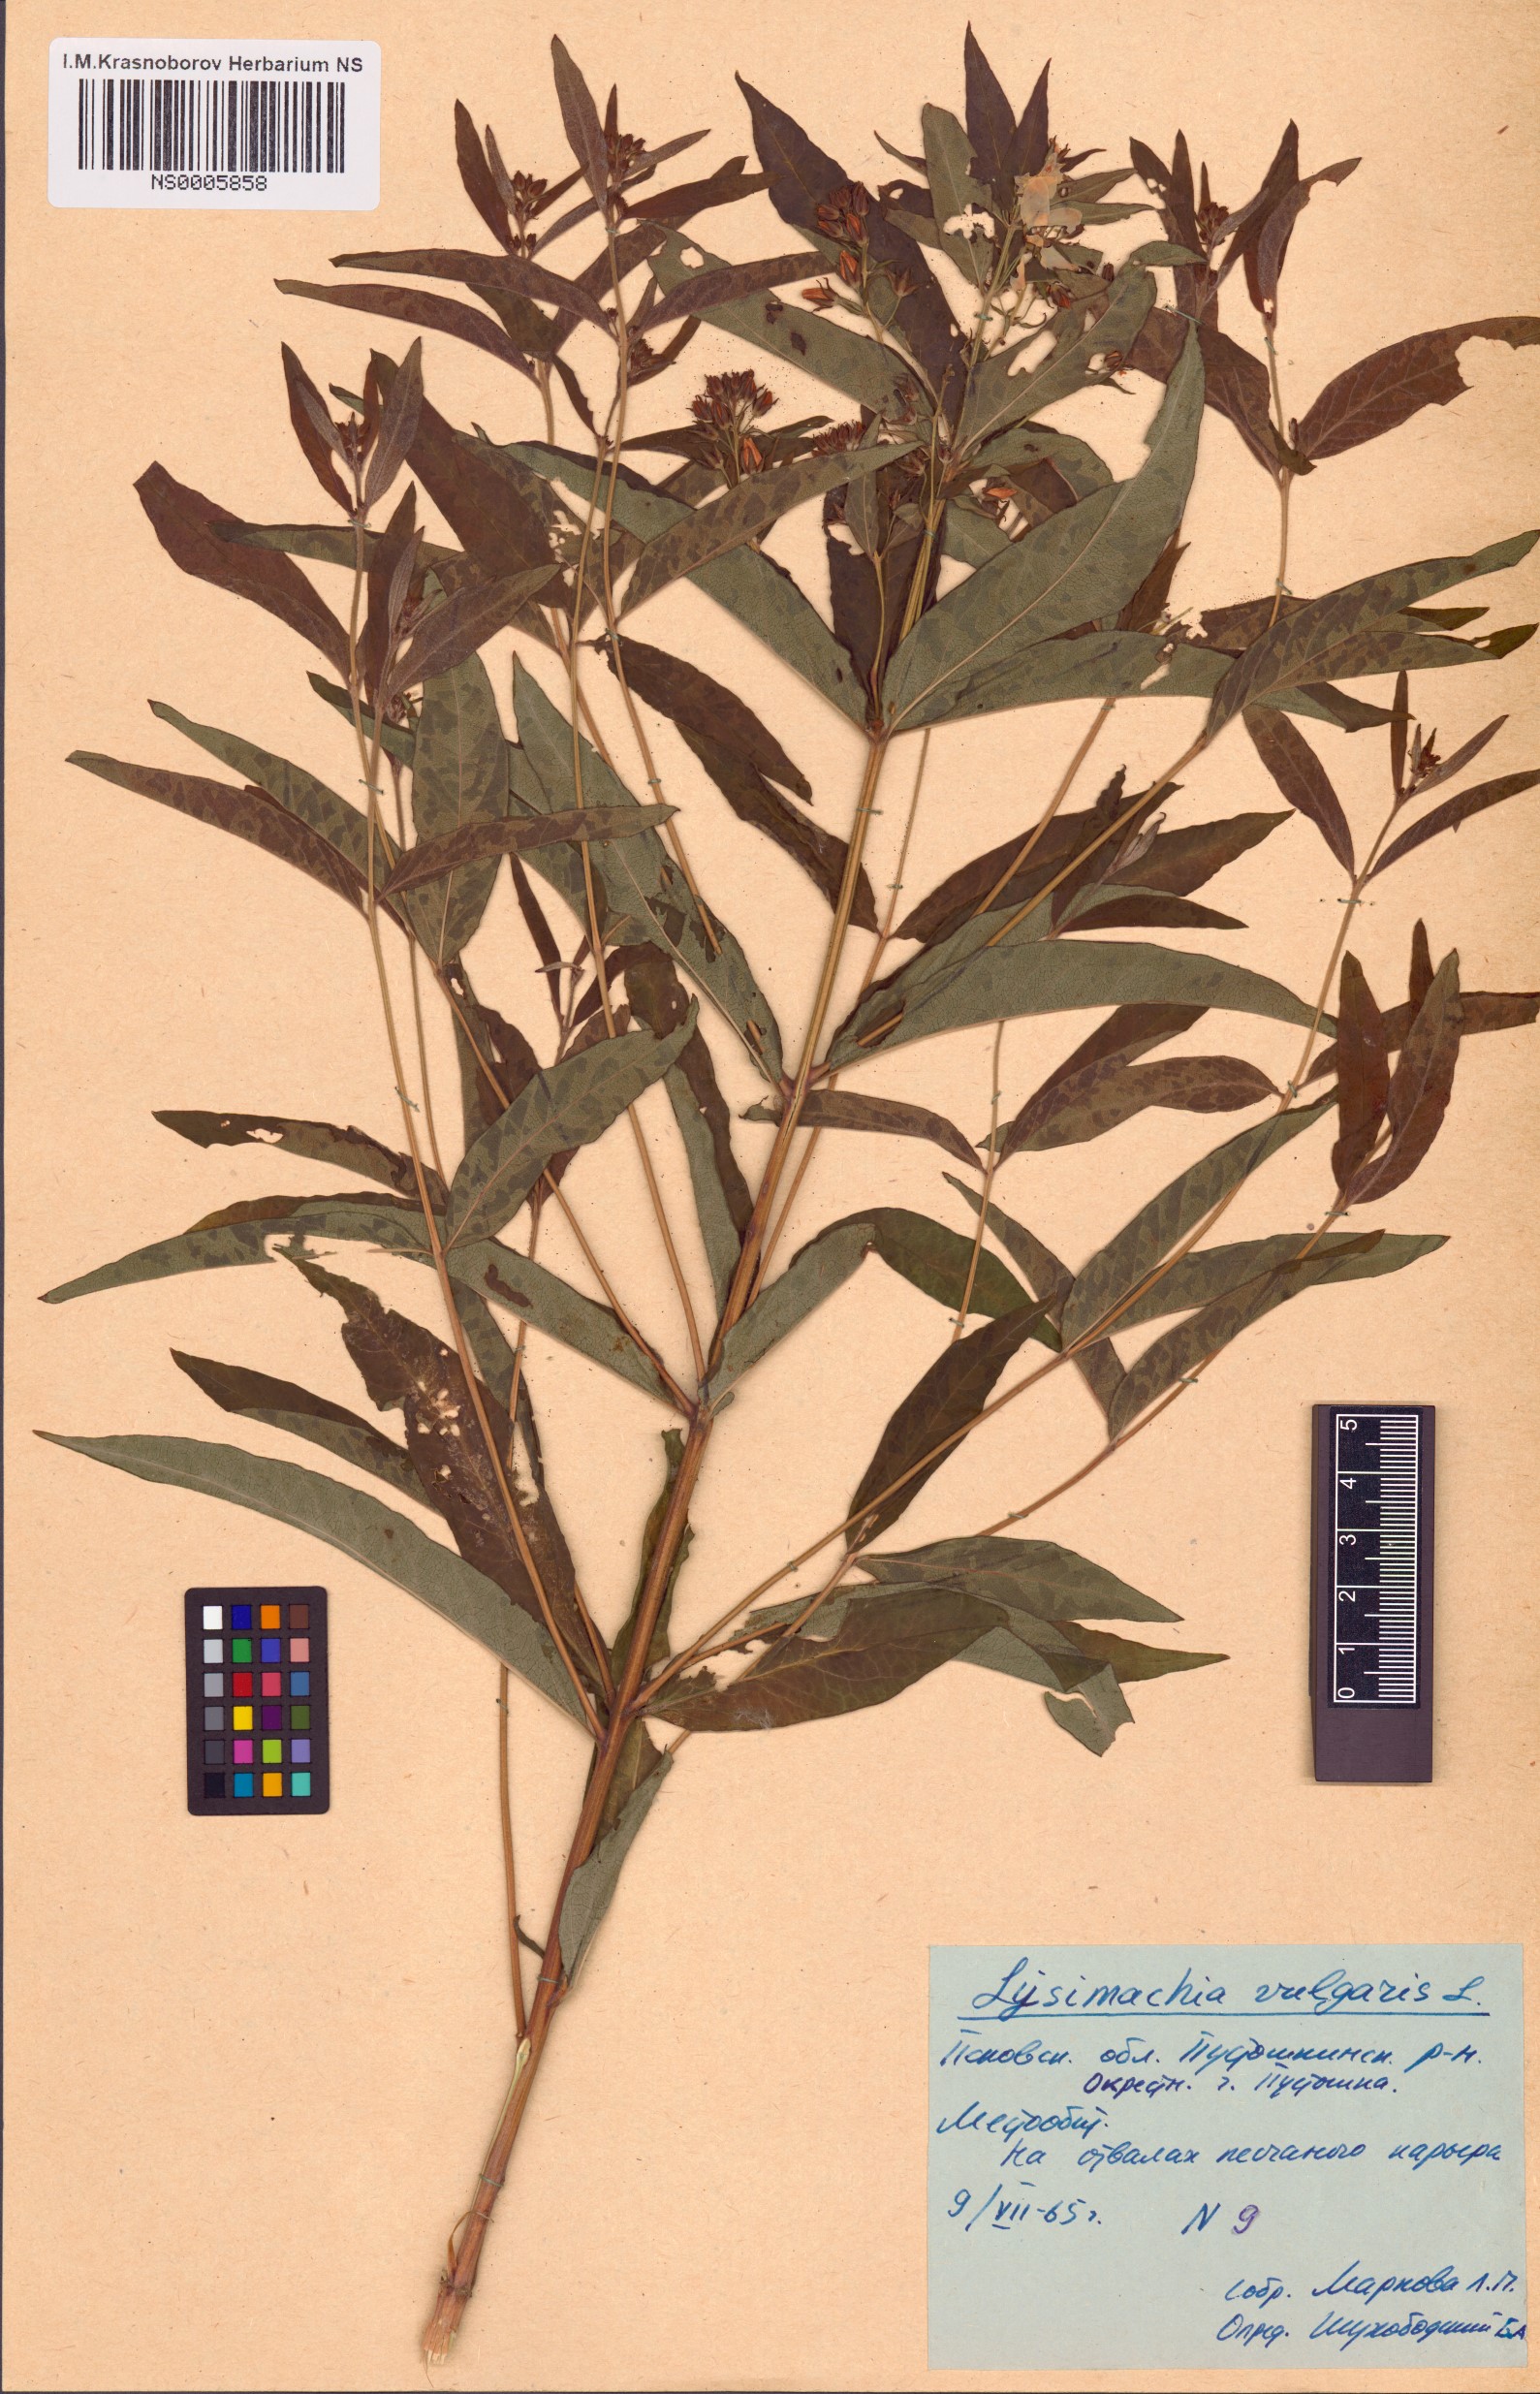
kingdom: Plantae
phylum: Tracheophyta
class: Magnoliopsida
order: Ericales
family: Primulaceae
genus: Lysimachia
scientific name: Lysimachia vulgaris
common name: Yellow loosestrife
